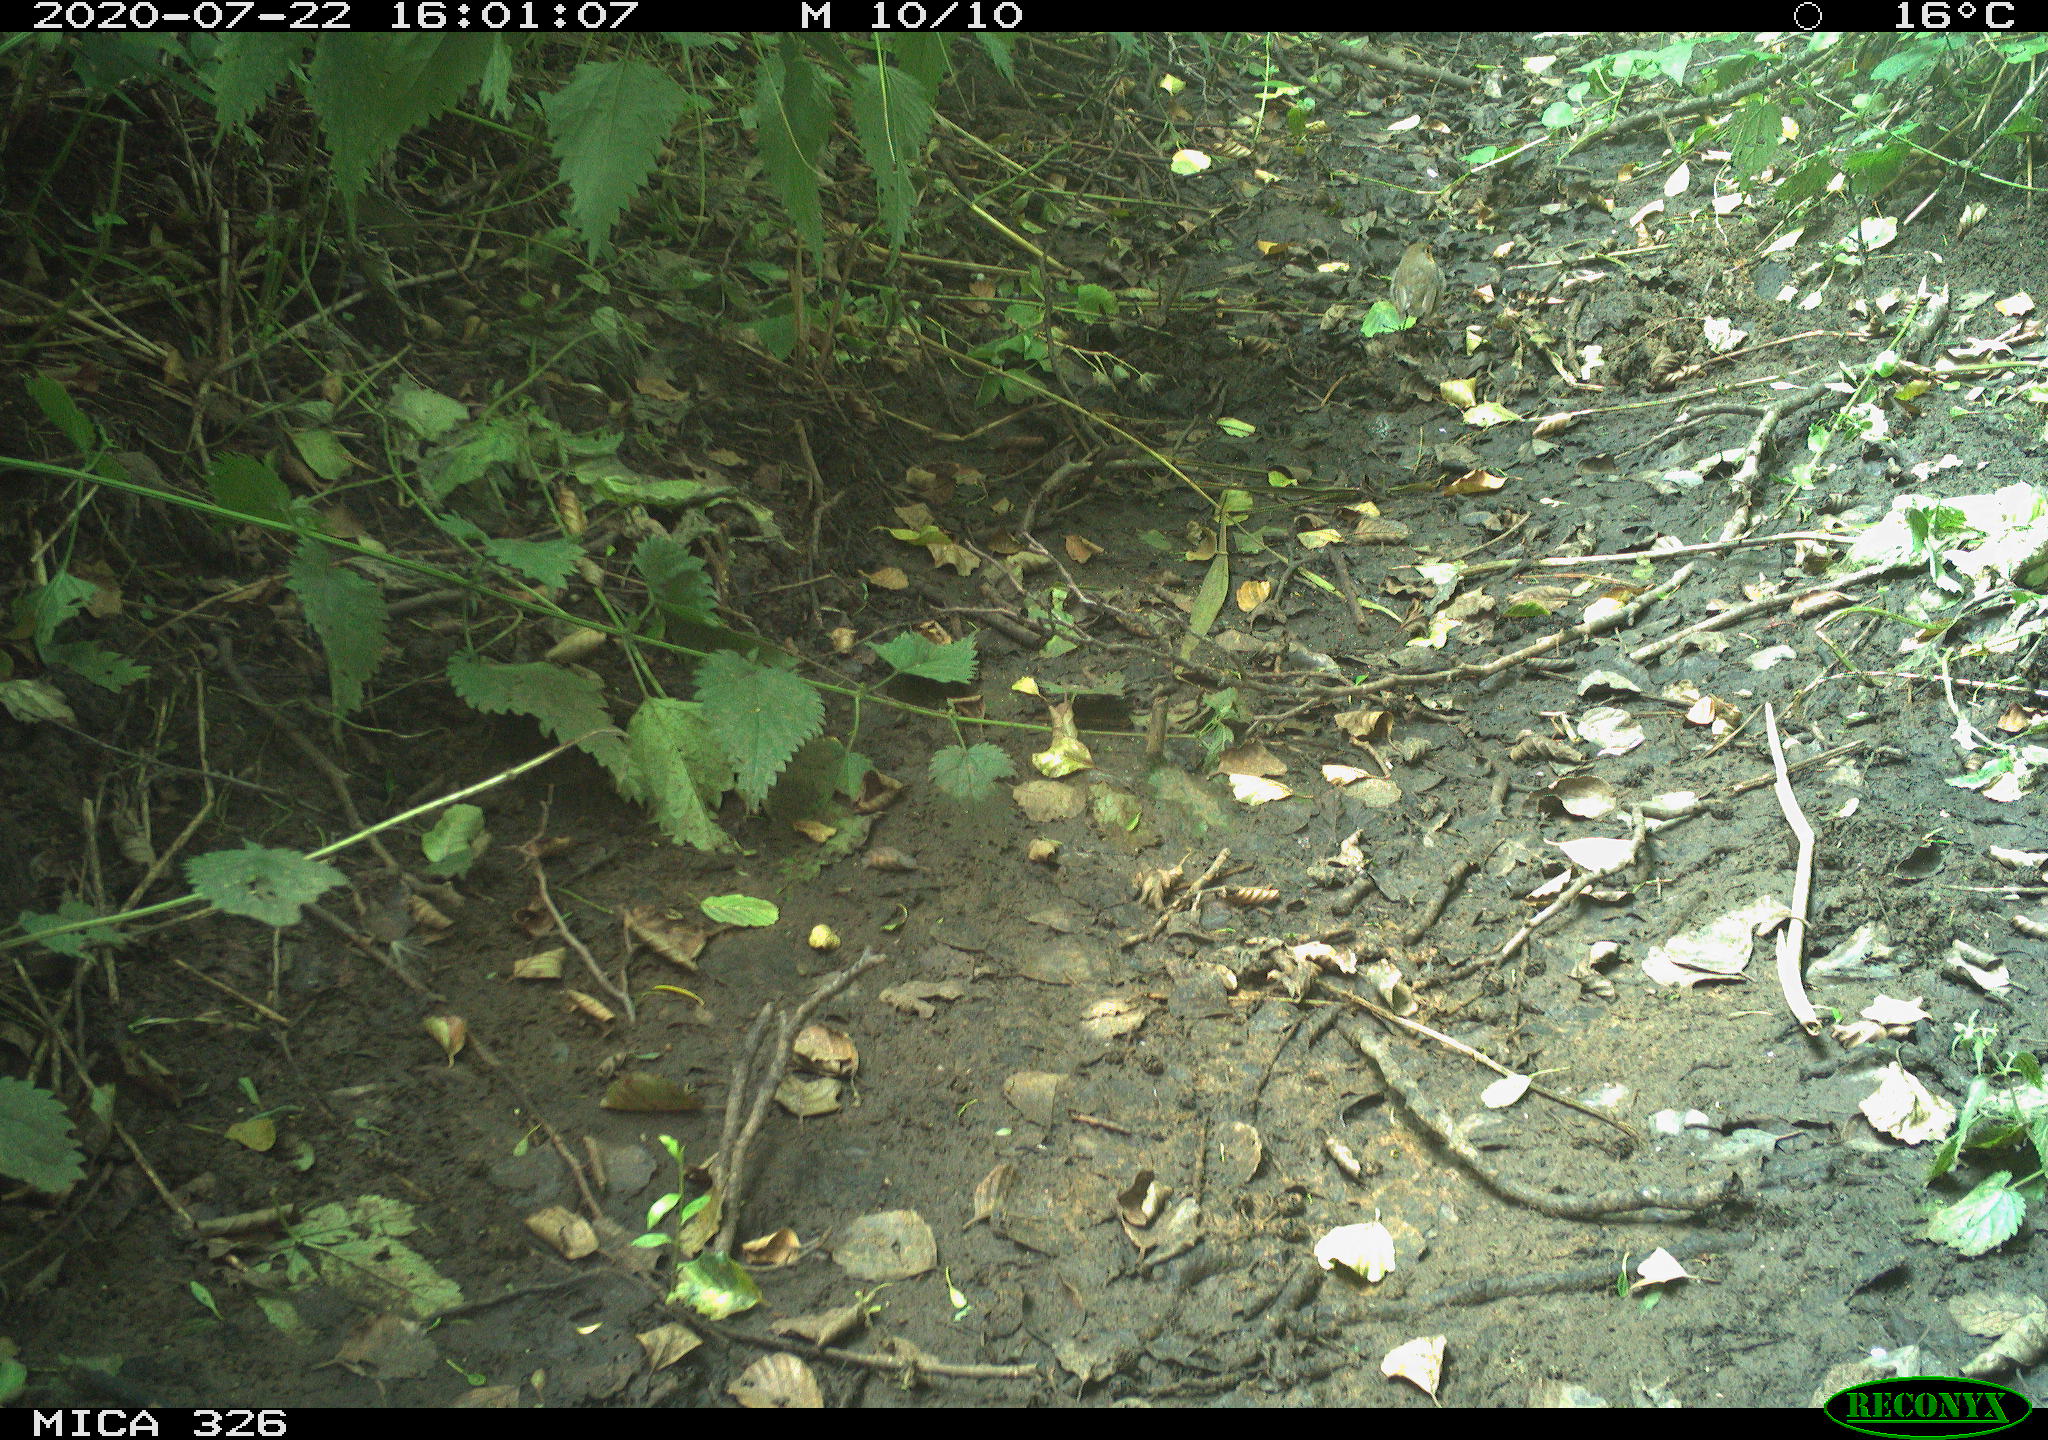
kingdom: Animalia
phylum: Chordata
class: Aves
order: Passeriformes
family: Muscicapidae
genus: Erithacus
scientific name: Erithacus rubecula
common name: European robin
